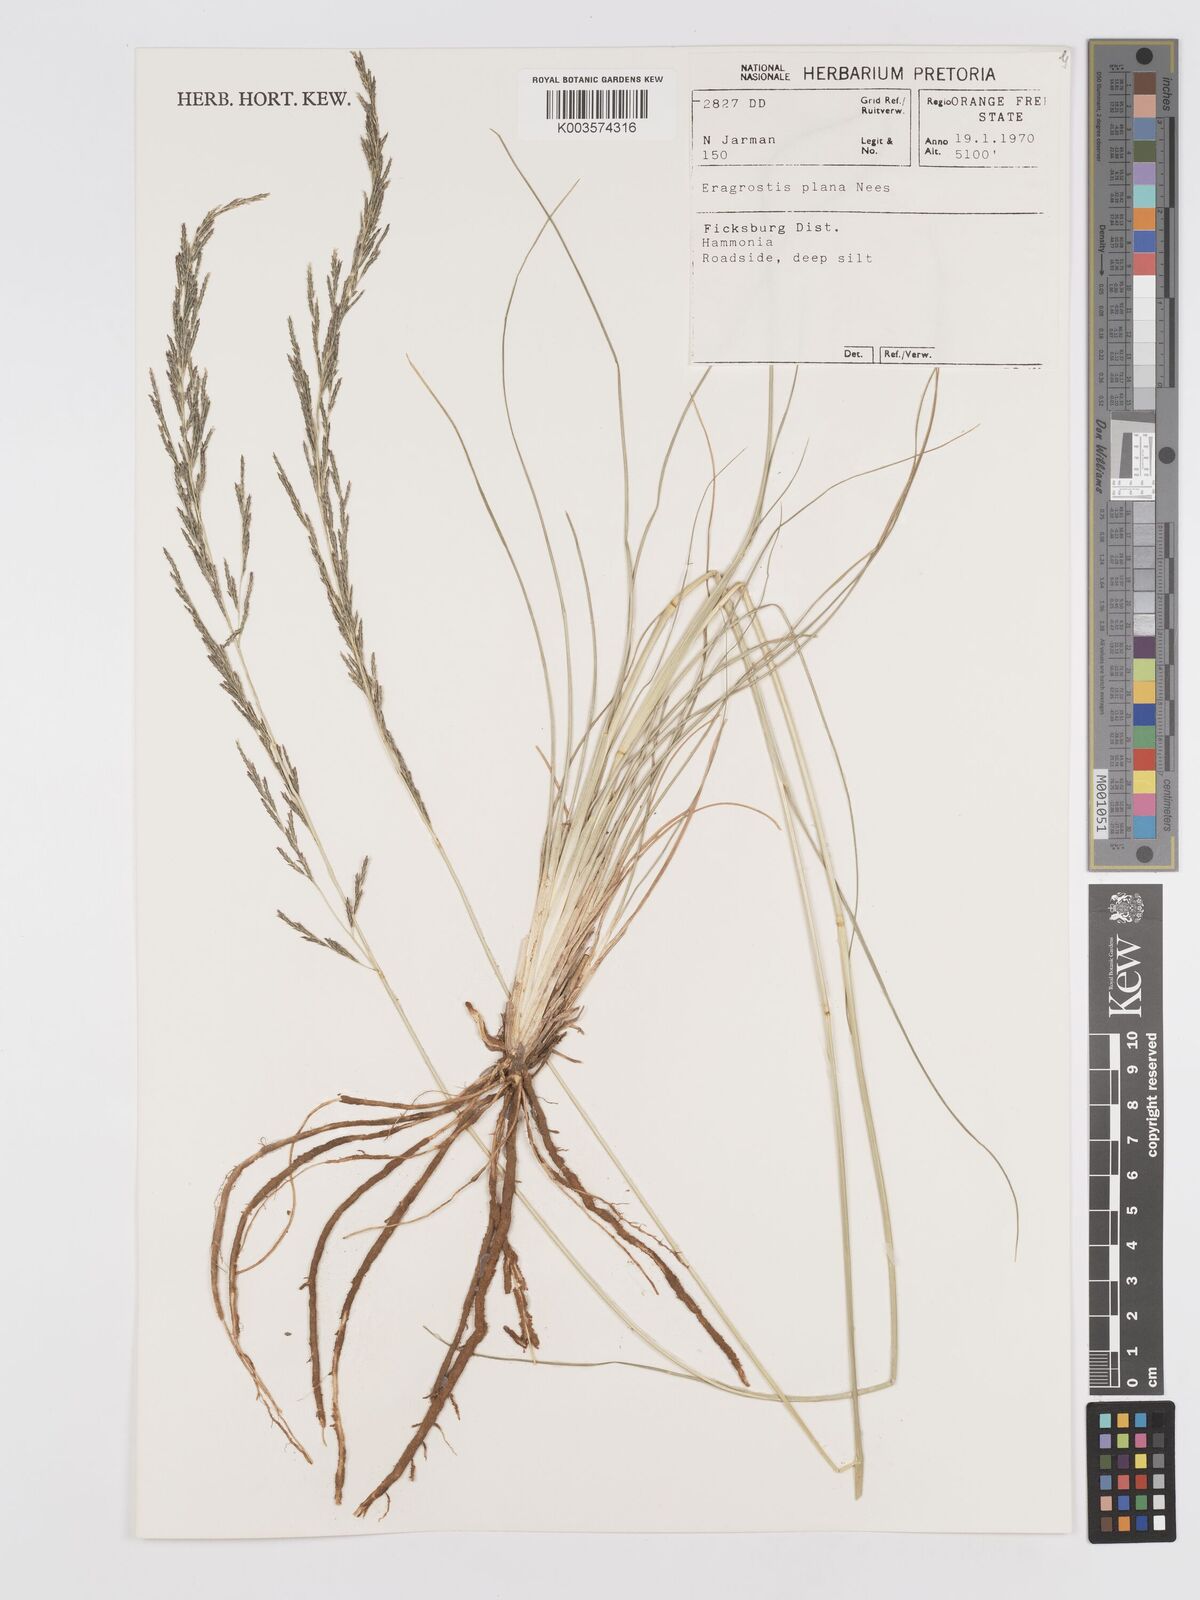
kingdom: Plantae
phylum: Tracheophyta
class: Liliopsida
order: Poales
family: Poaceae
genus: Eragrostis
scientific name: Eragrostis plana
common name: South african lovegrass
